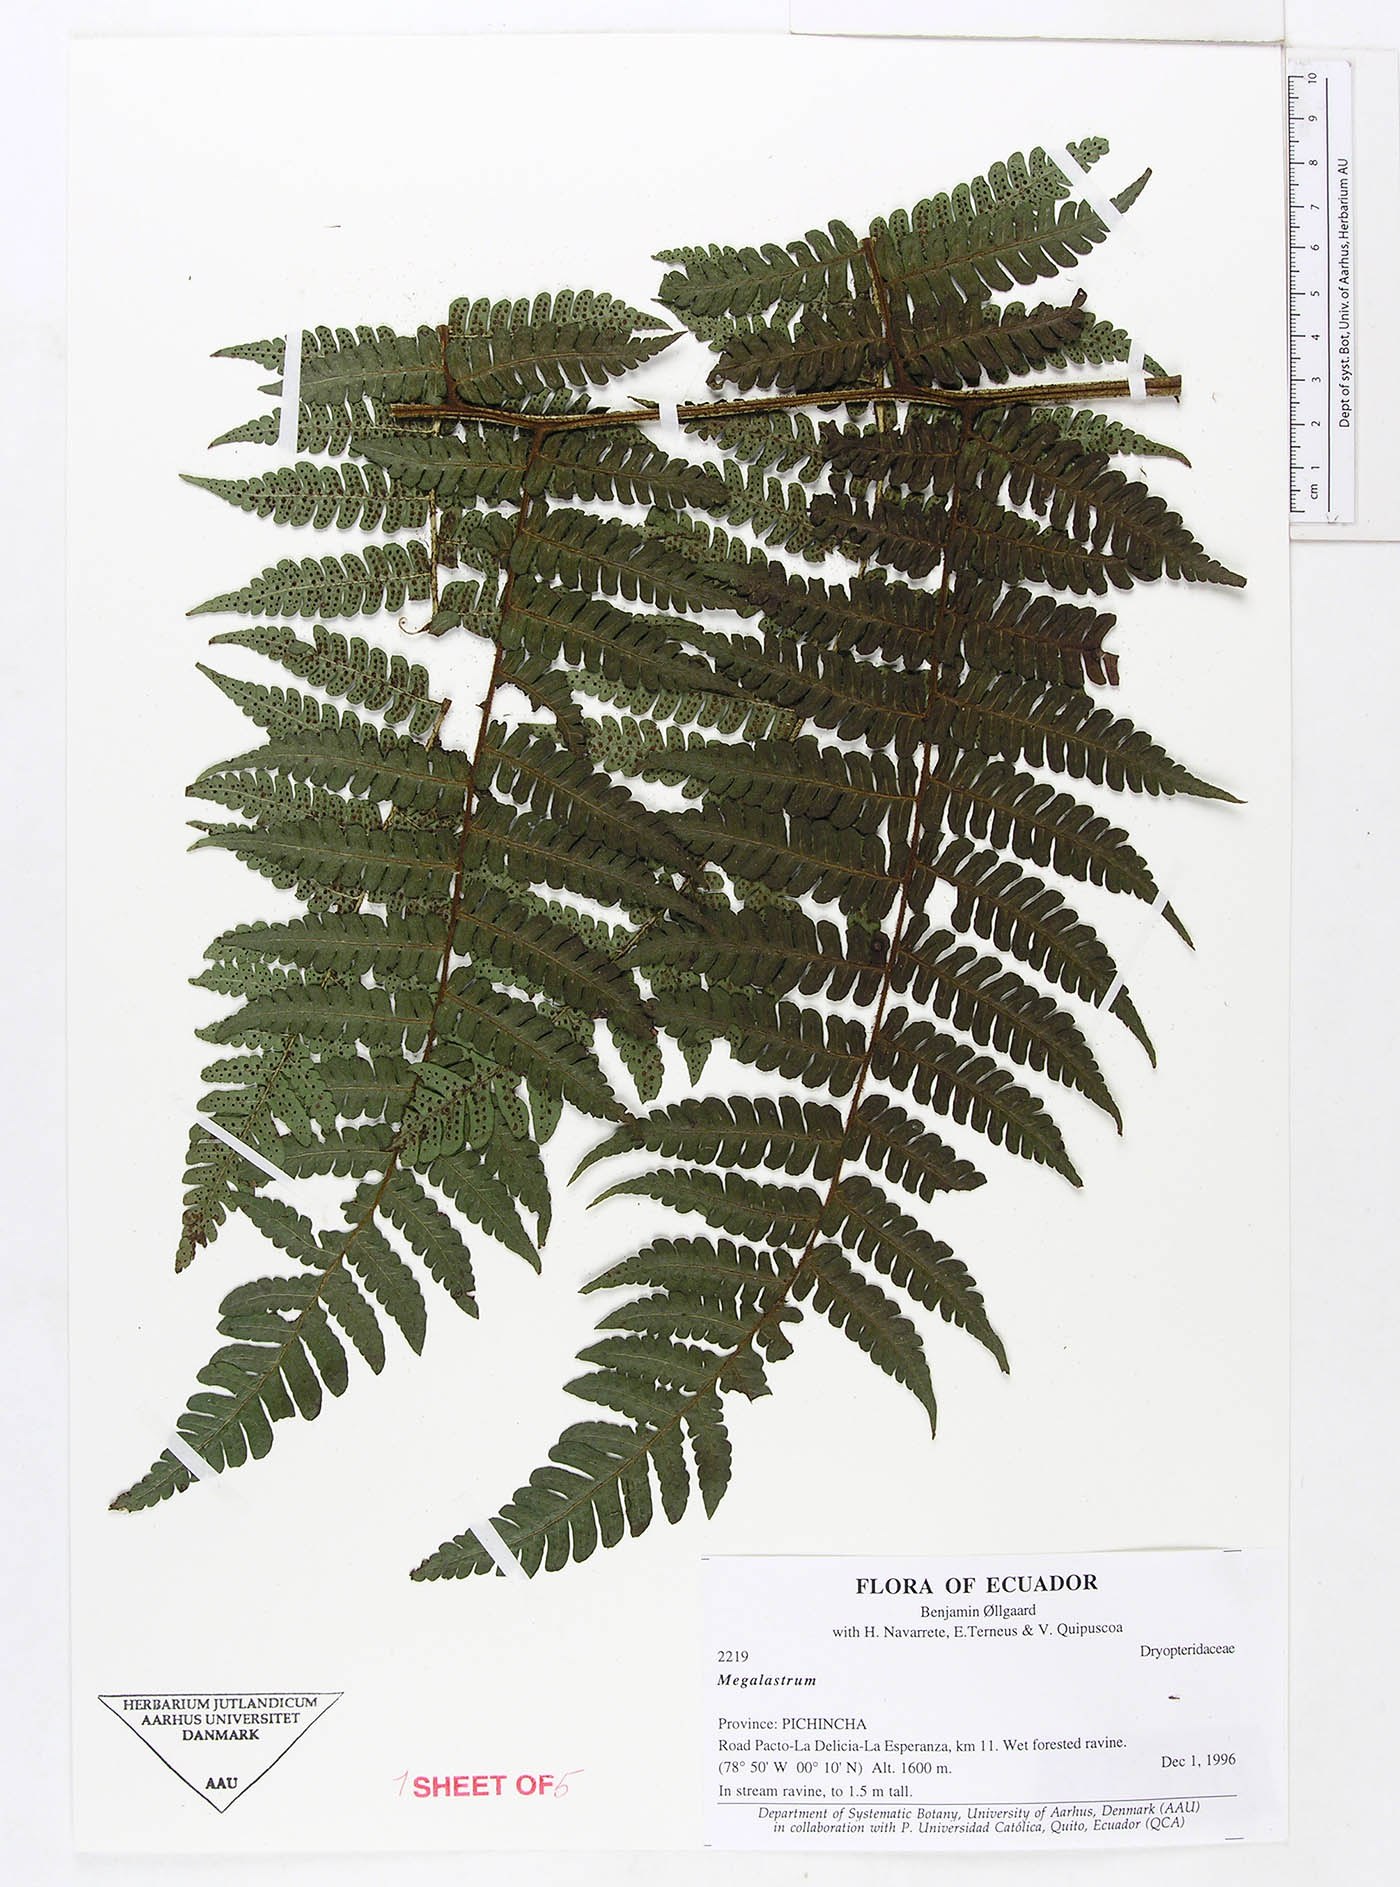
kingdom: Plantae
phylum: Tracheophyta
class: Polypodiopsida
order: Polypodiales
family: Dryopteridaceae
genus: Megalastrum
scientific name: Megalastrum oellgaardii
